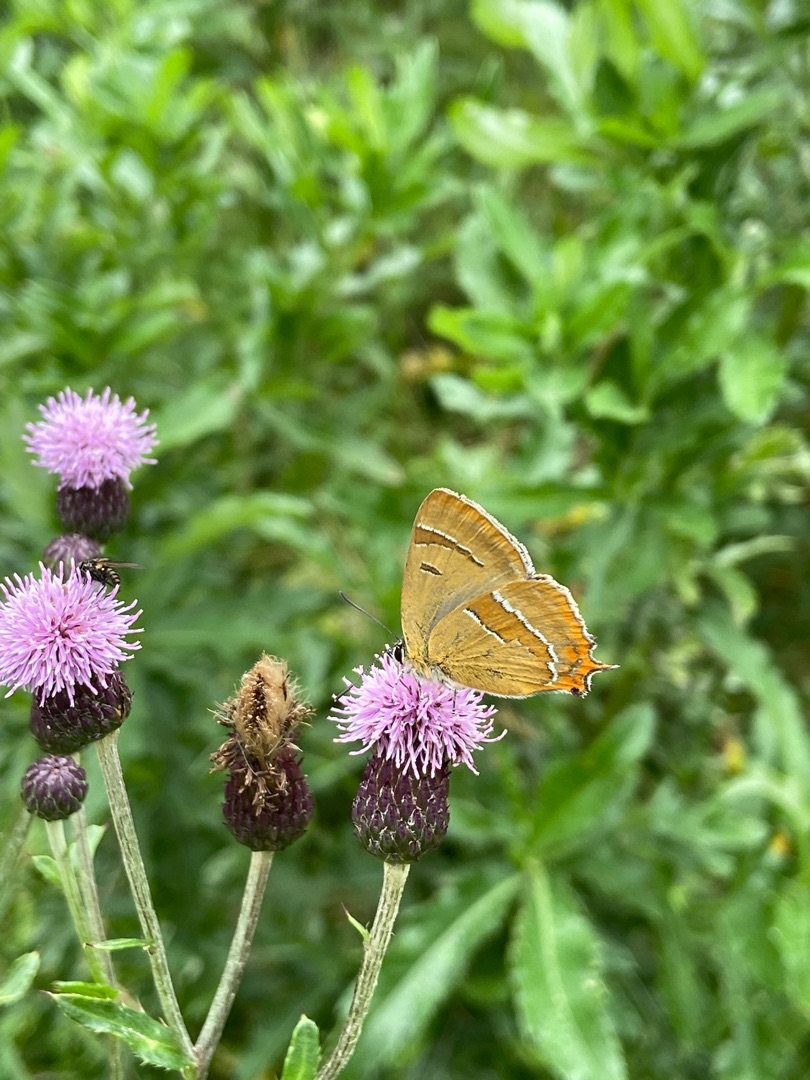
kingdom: Animalia
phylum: Arthropoda
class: Insecta
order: Lepidoptera
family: Lycaenidae
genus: Thecla
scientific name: Thecla betulae
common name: Guldhale
